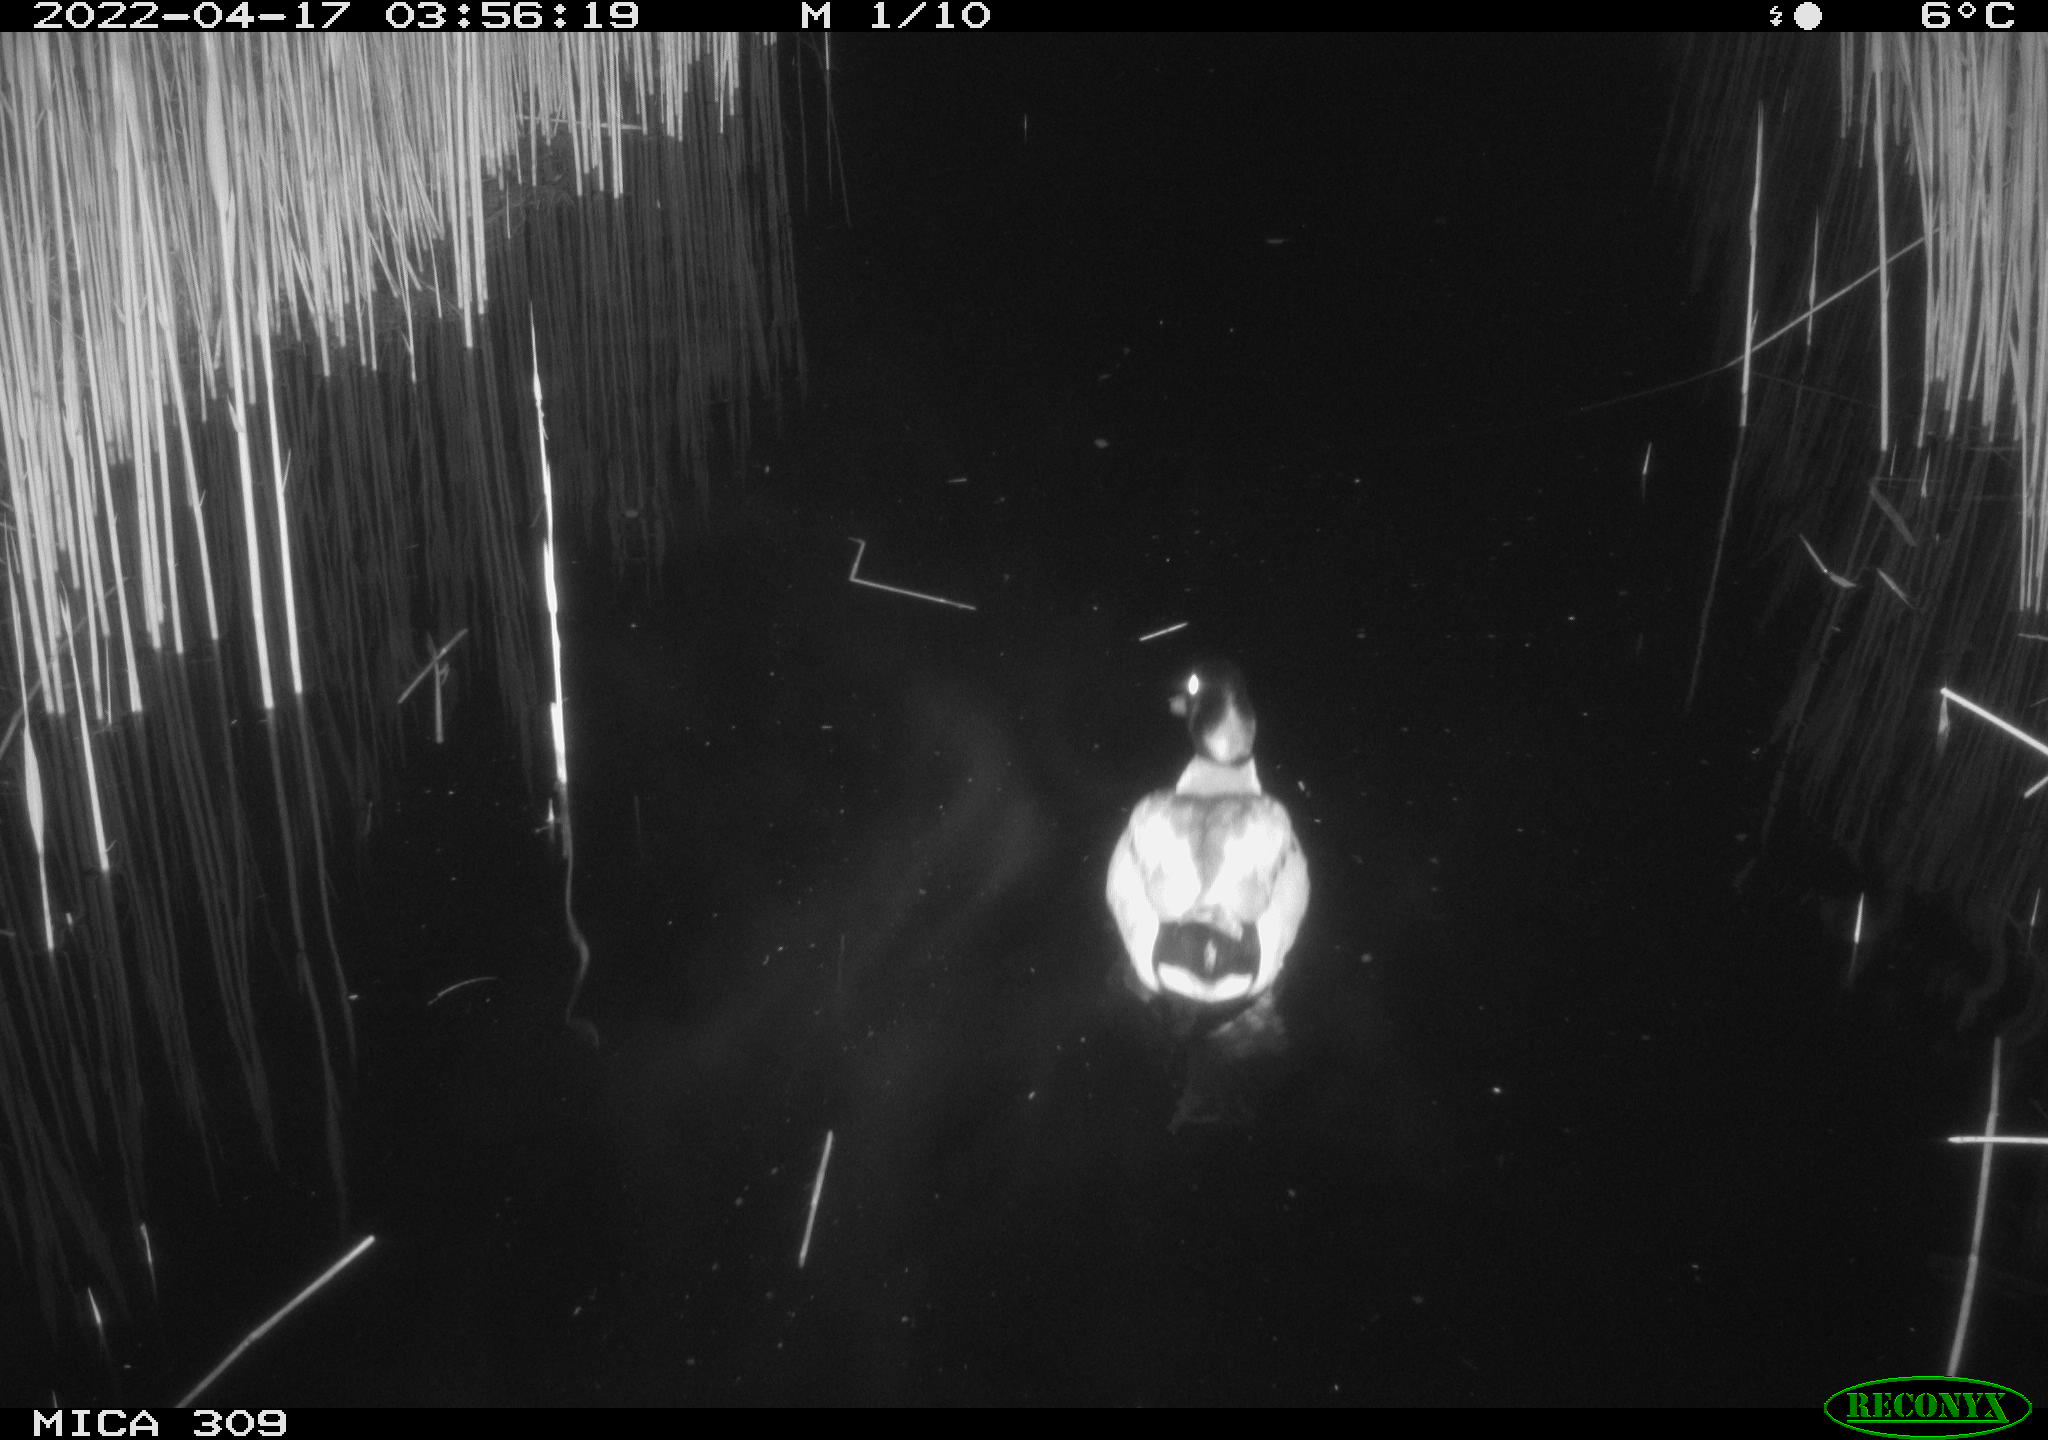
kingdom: Animalia
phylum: Chordata
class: Aves
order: Anseriformes
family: Anatidae
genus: Anas
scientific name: Anas platyrhynchos
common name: Mallard
